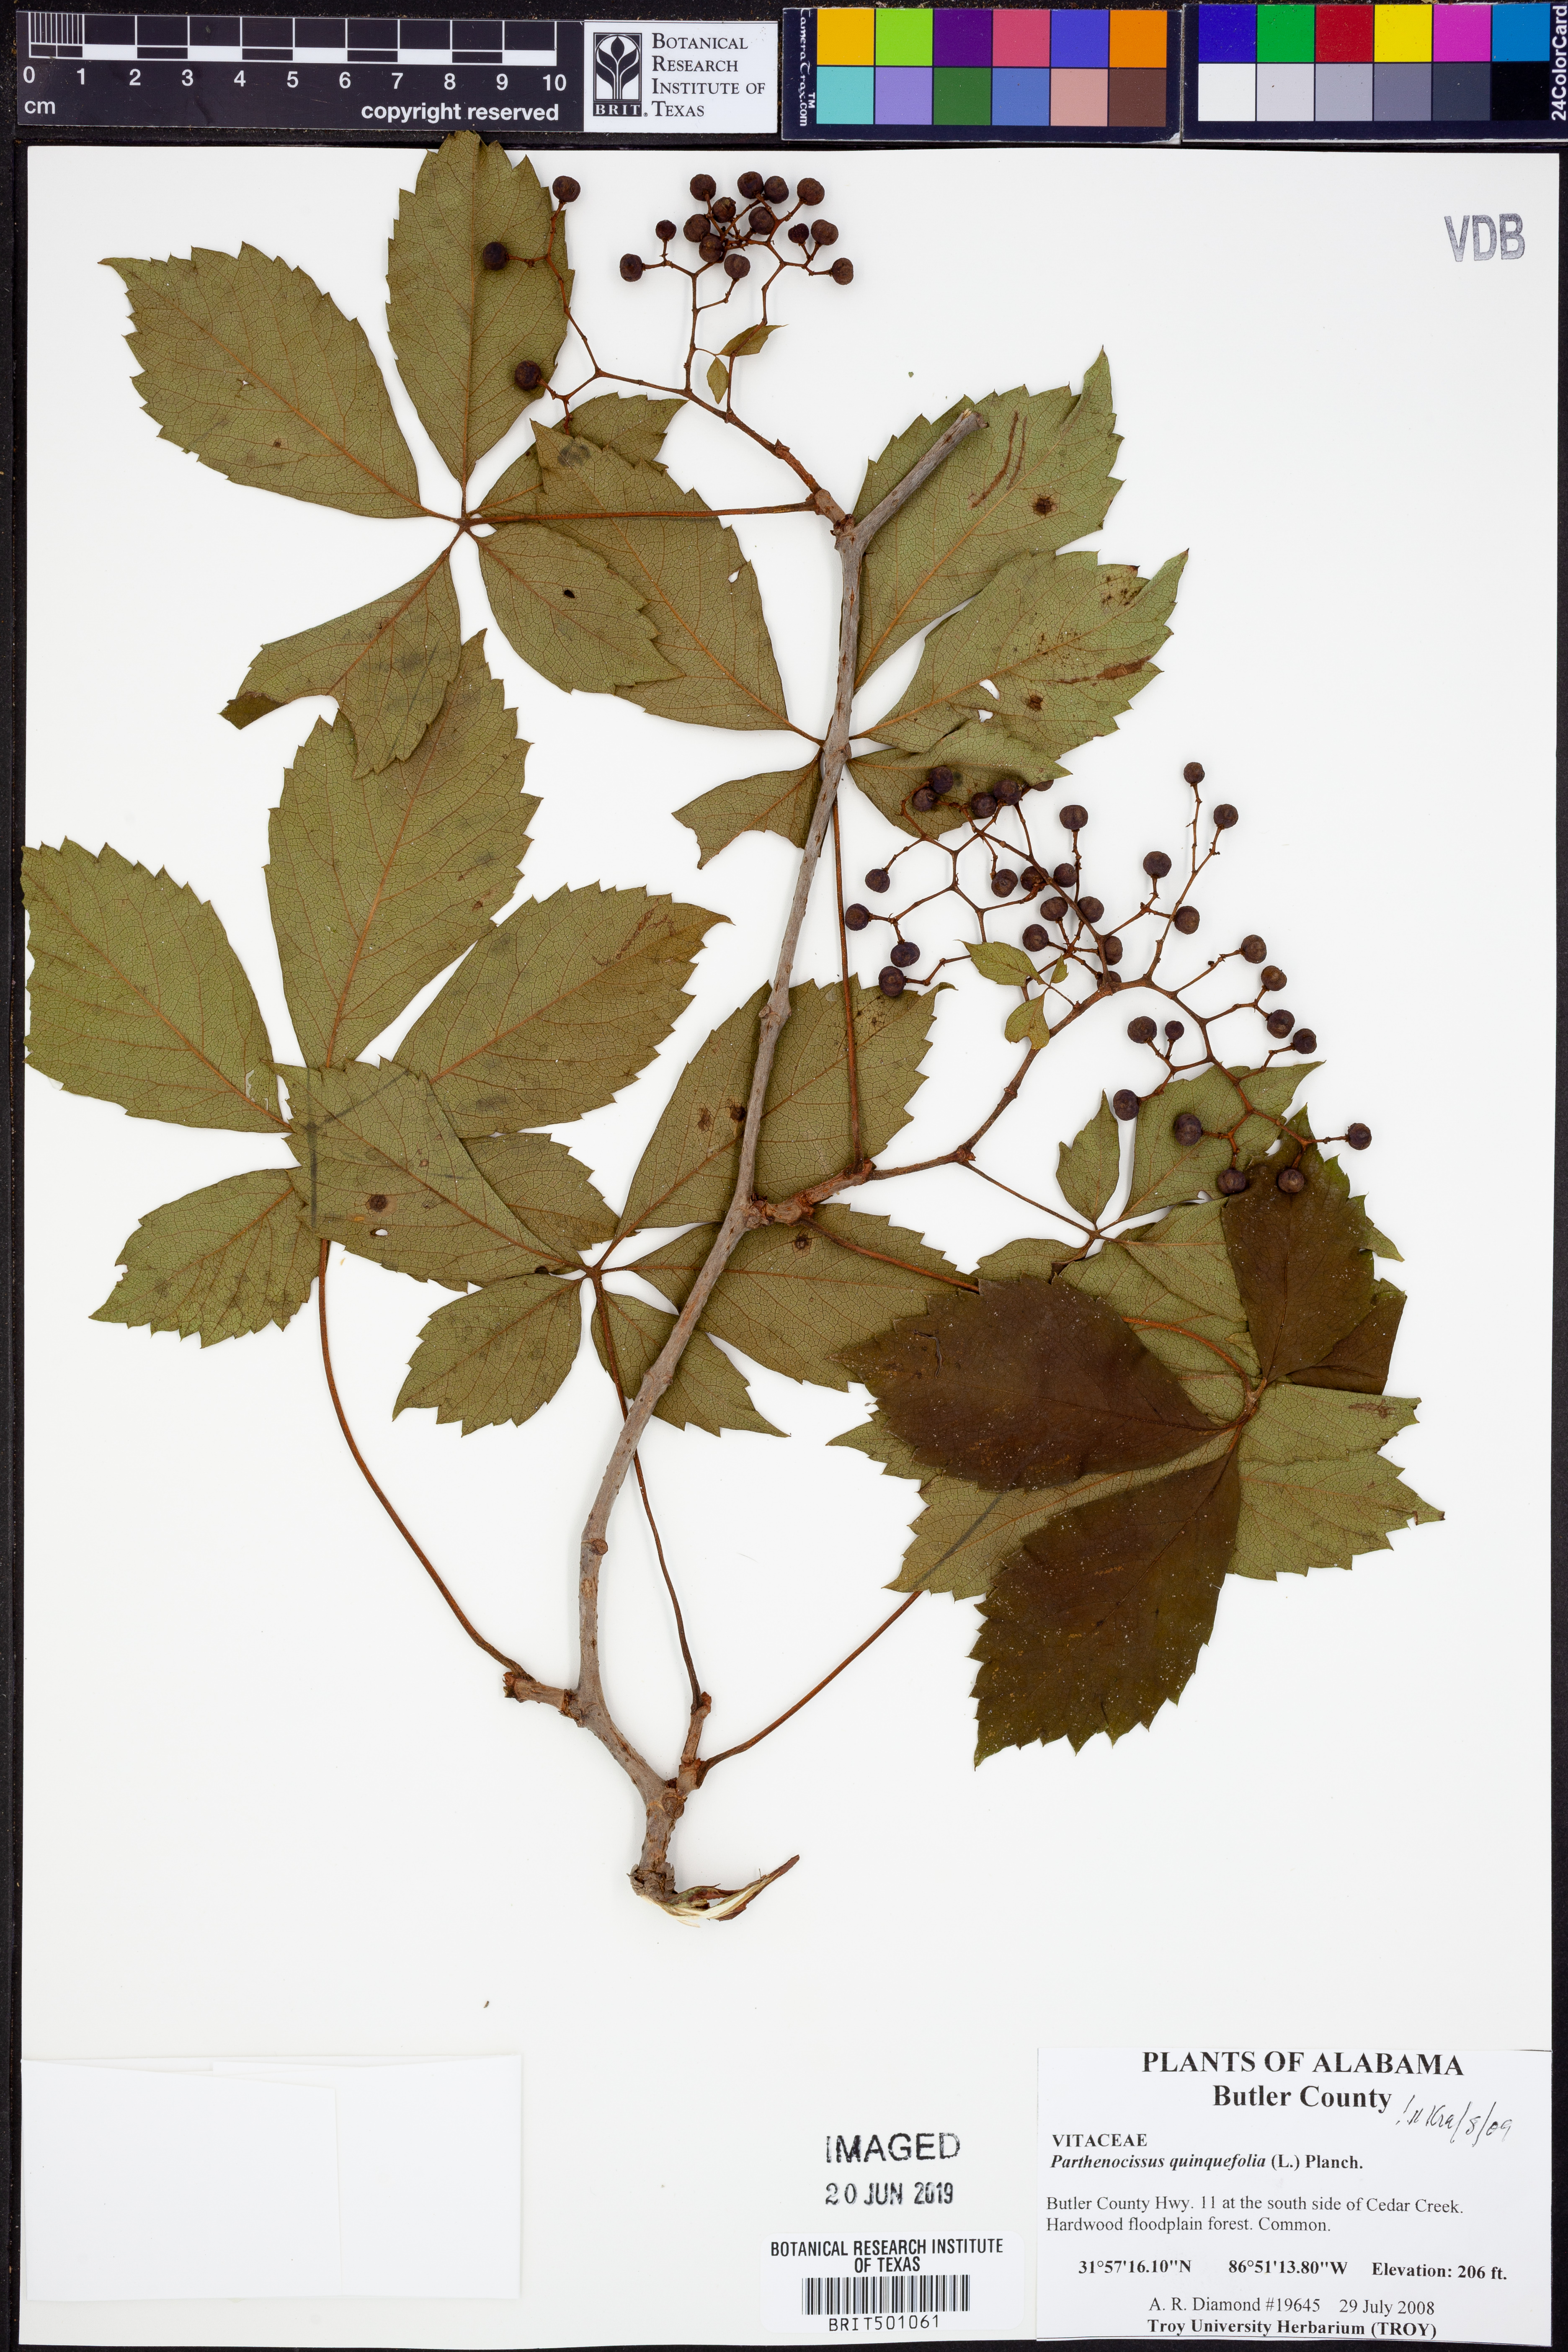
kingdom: Plantae
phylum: Tracheophyta
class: Magnoliopsida
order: Vitales
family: Vitaceae
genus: Parthenocissus
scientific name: Parthenocissus quinquefolia
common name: Virginia-creeper
